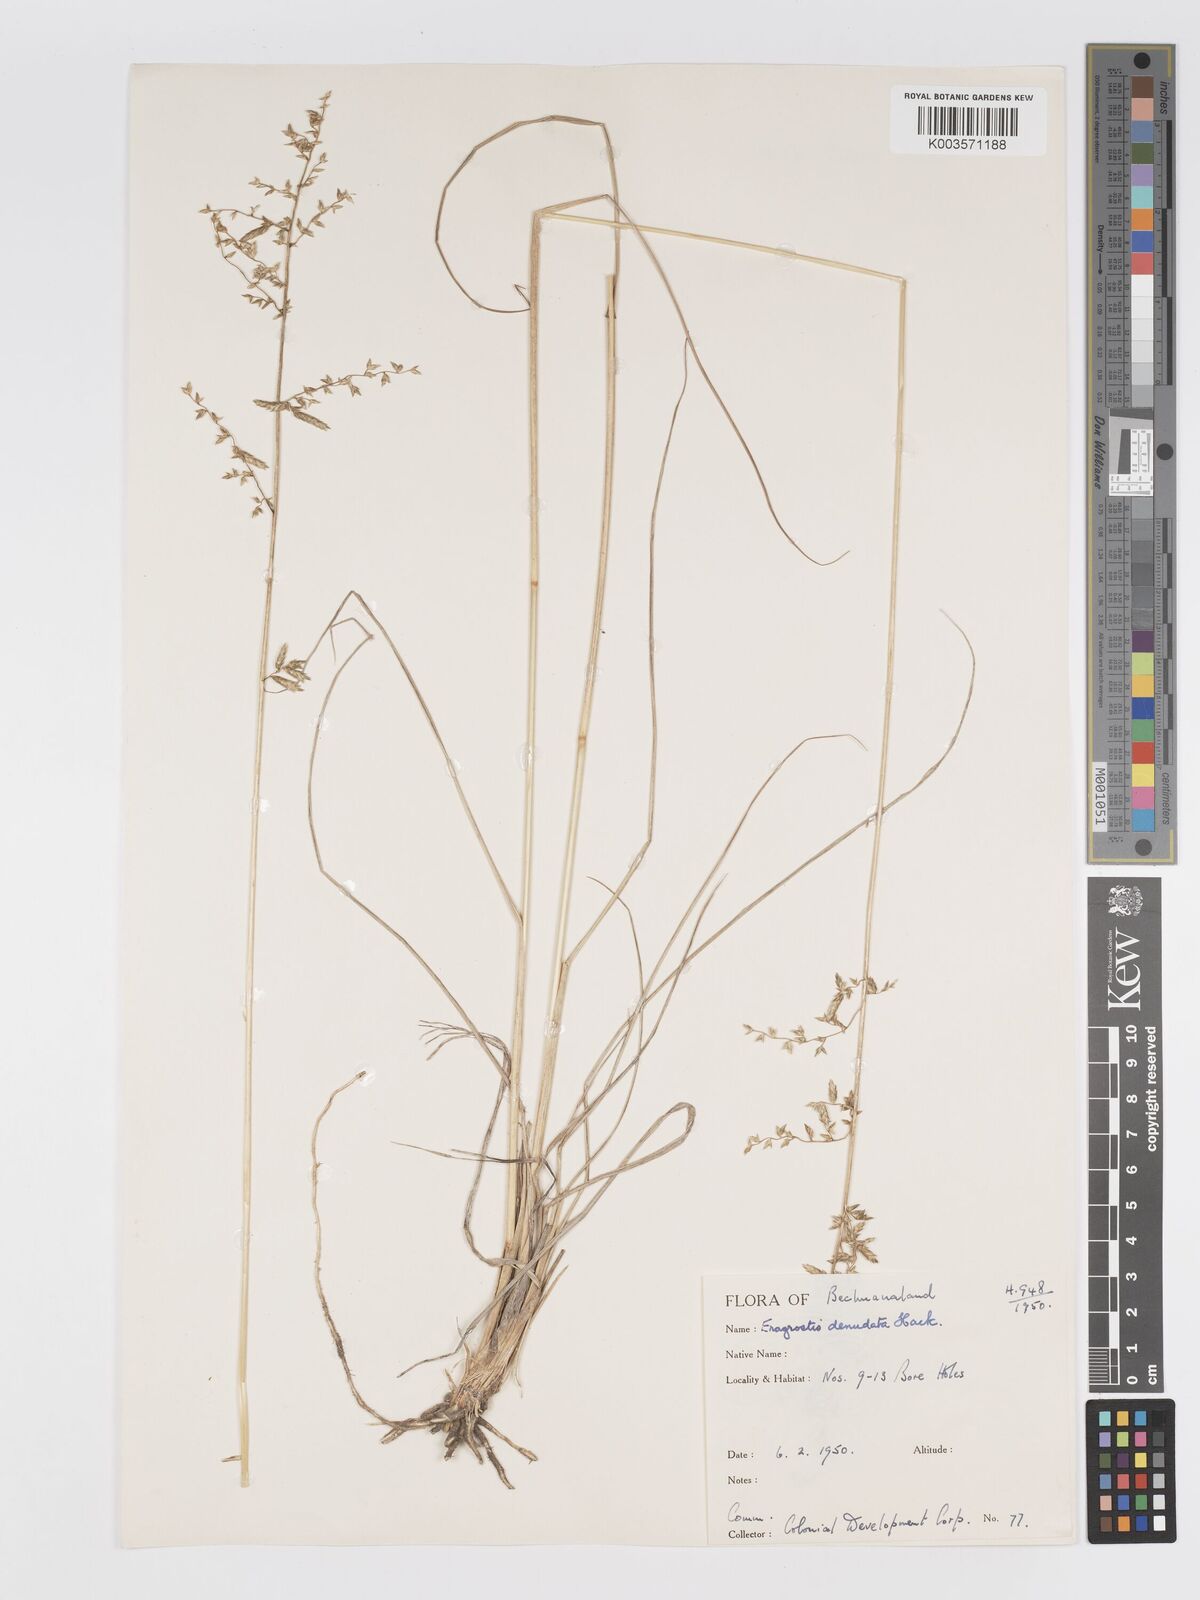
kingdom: Plantae
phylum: Tracheophyta
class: Liliopsida
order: Poales
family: Poaceae
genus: Eragrostis
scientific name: Eragrostis nindensis
